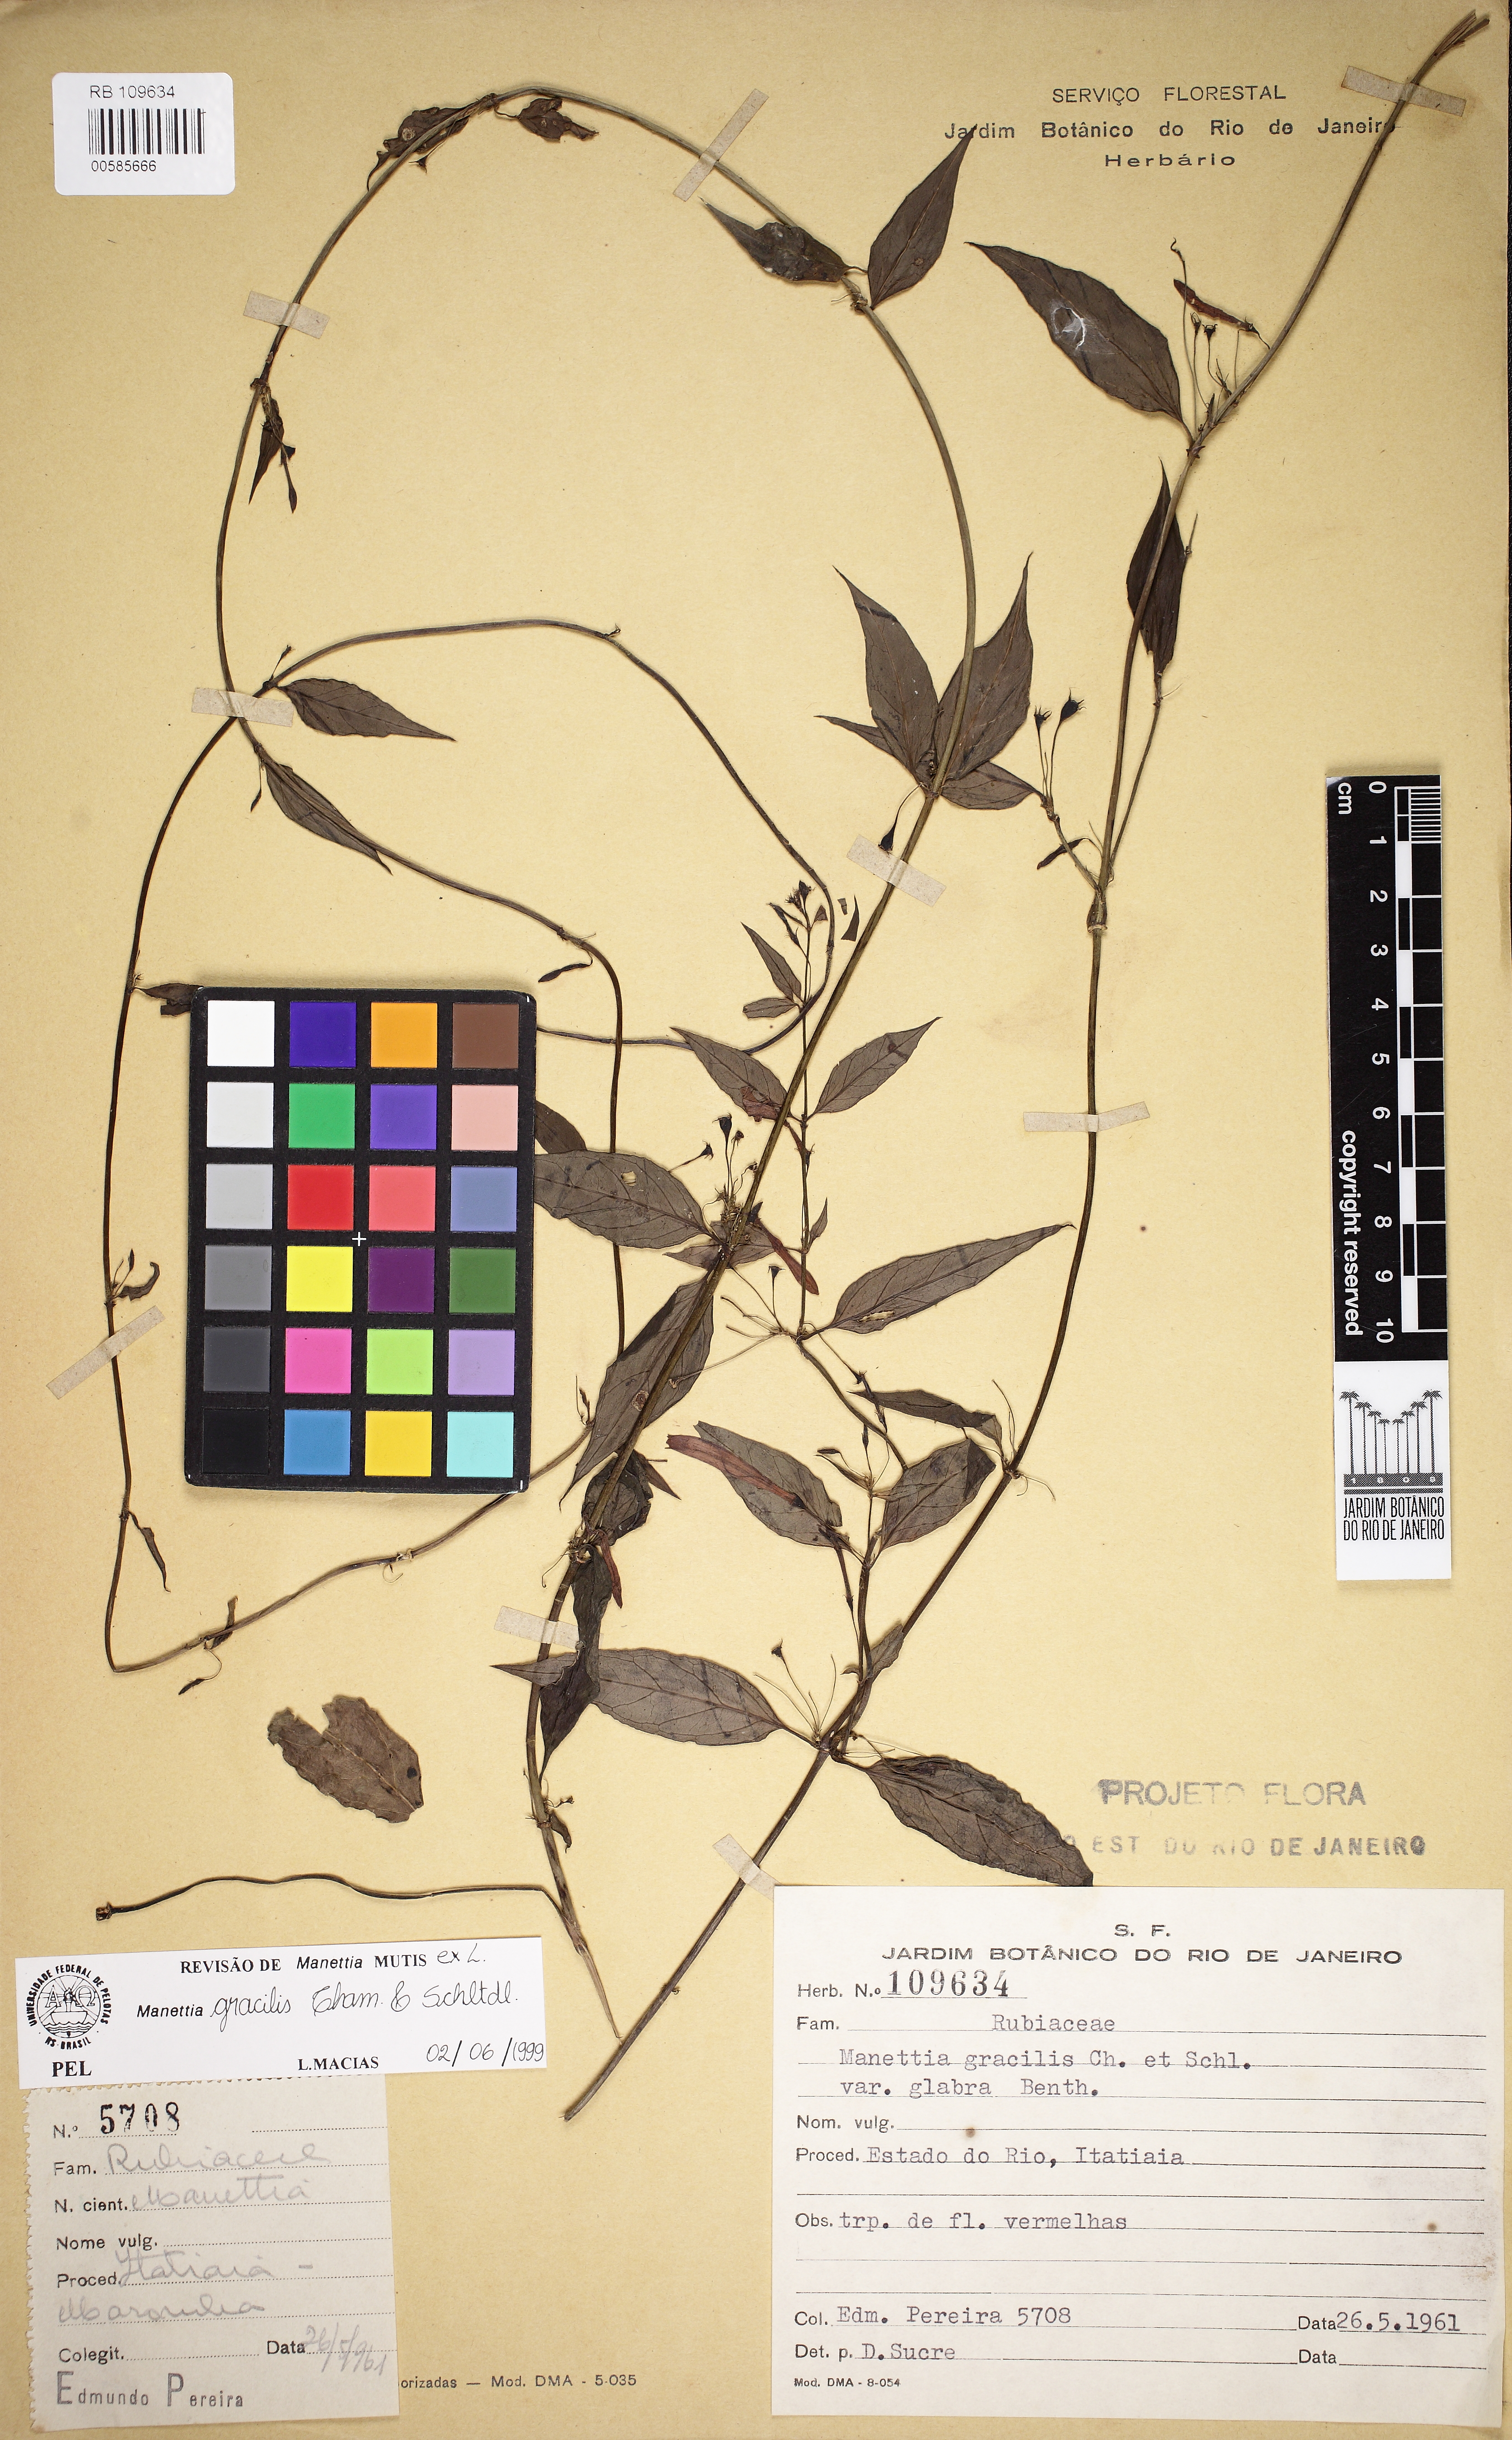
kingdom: Plantae
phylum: Tracheophyta
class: Magnoliopsida
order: Gentianales
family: Rubiaceae
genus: Manettia
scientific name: Manettia gracilis
